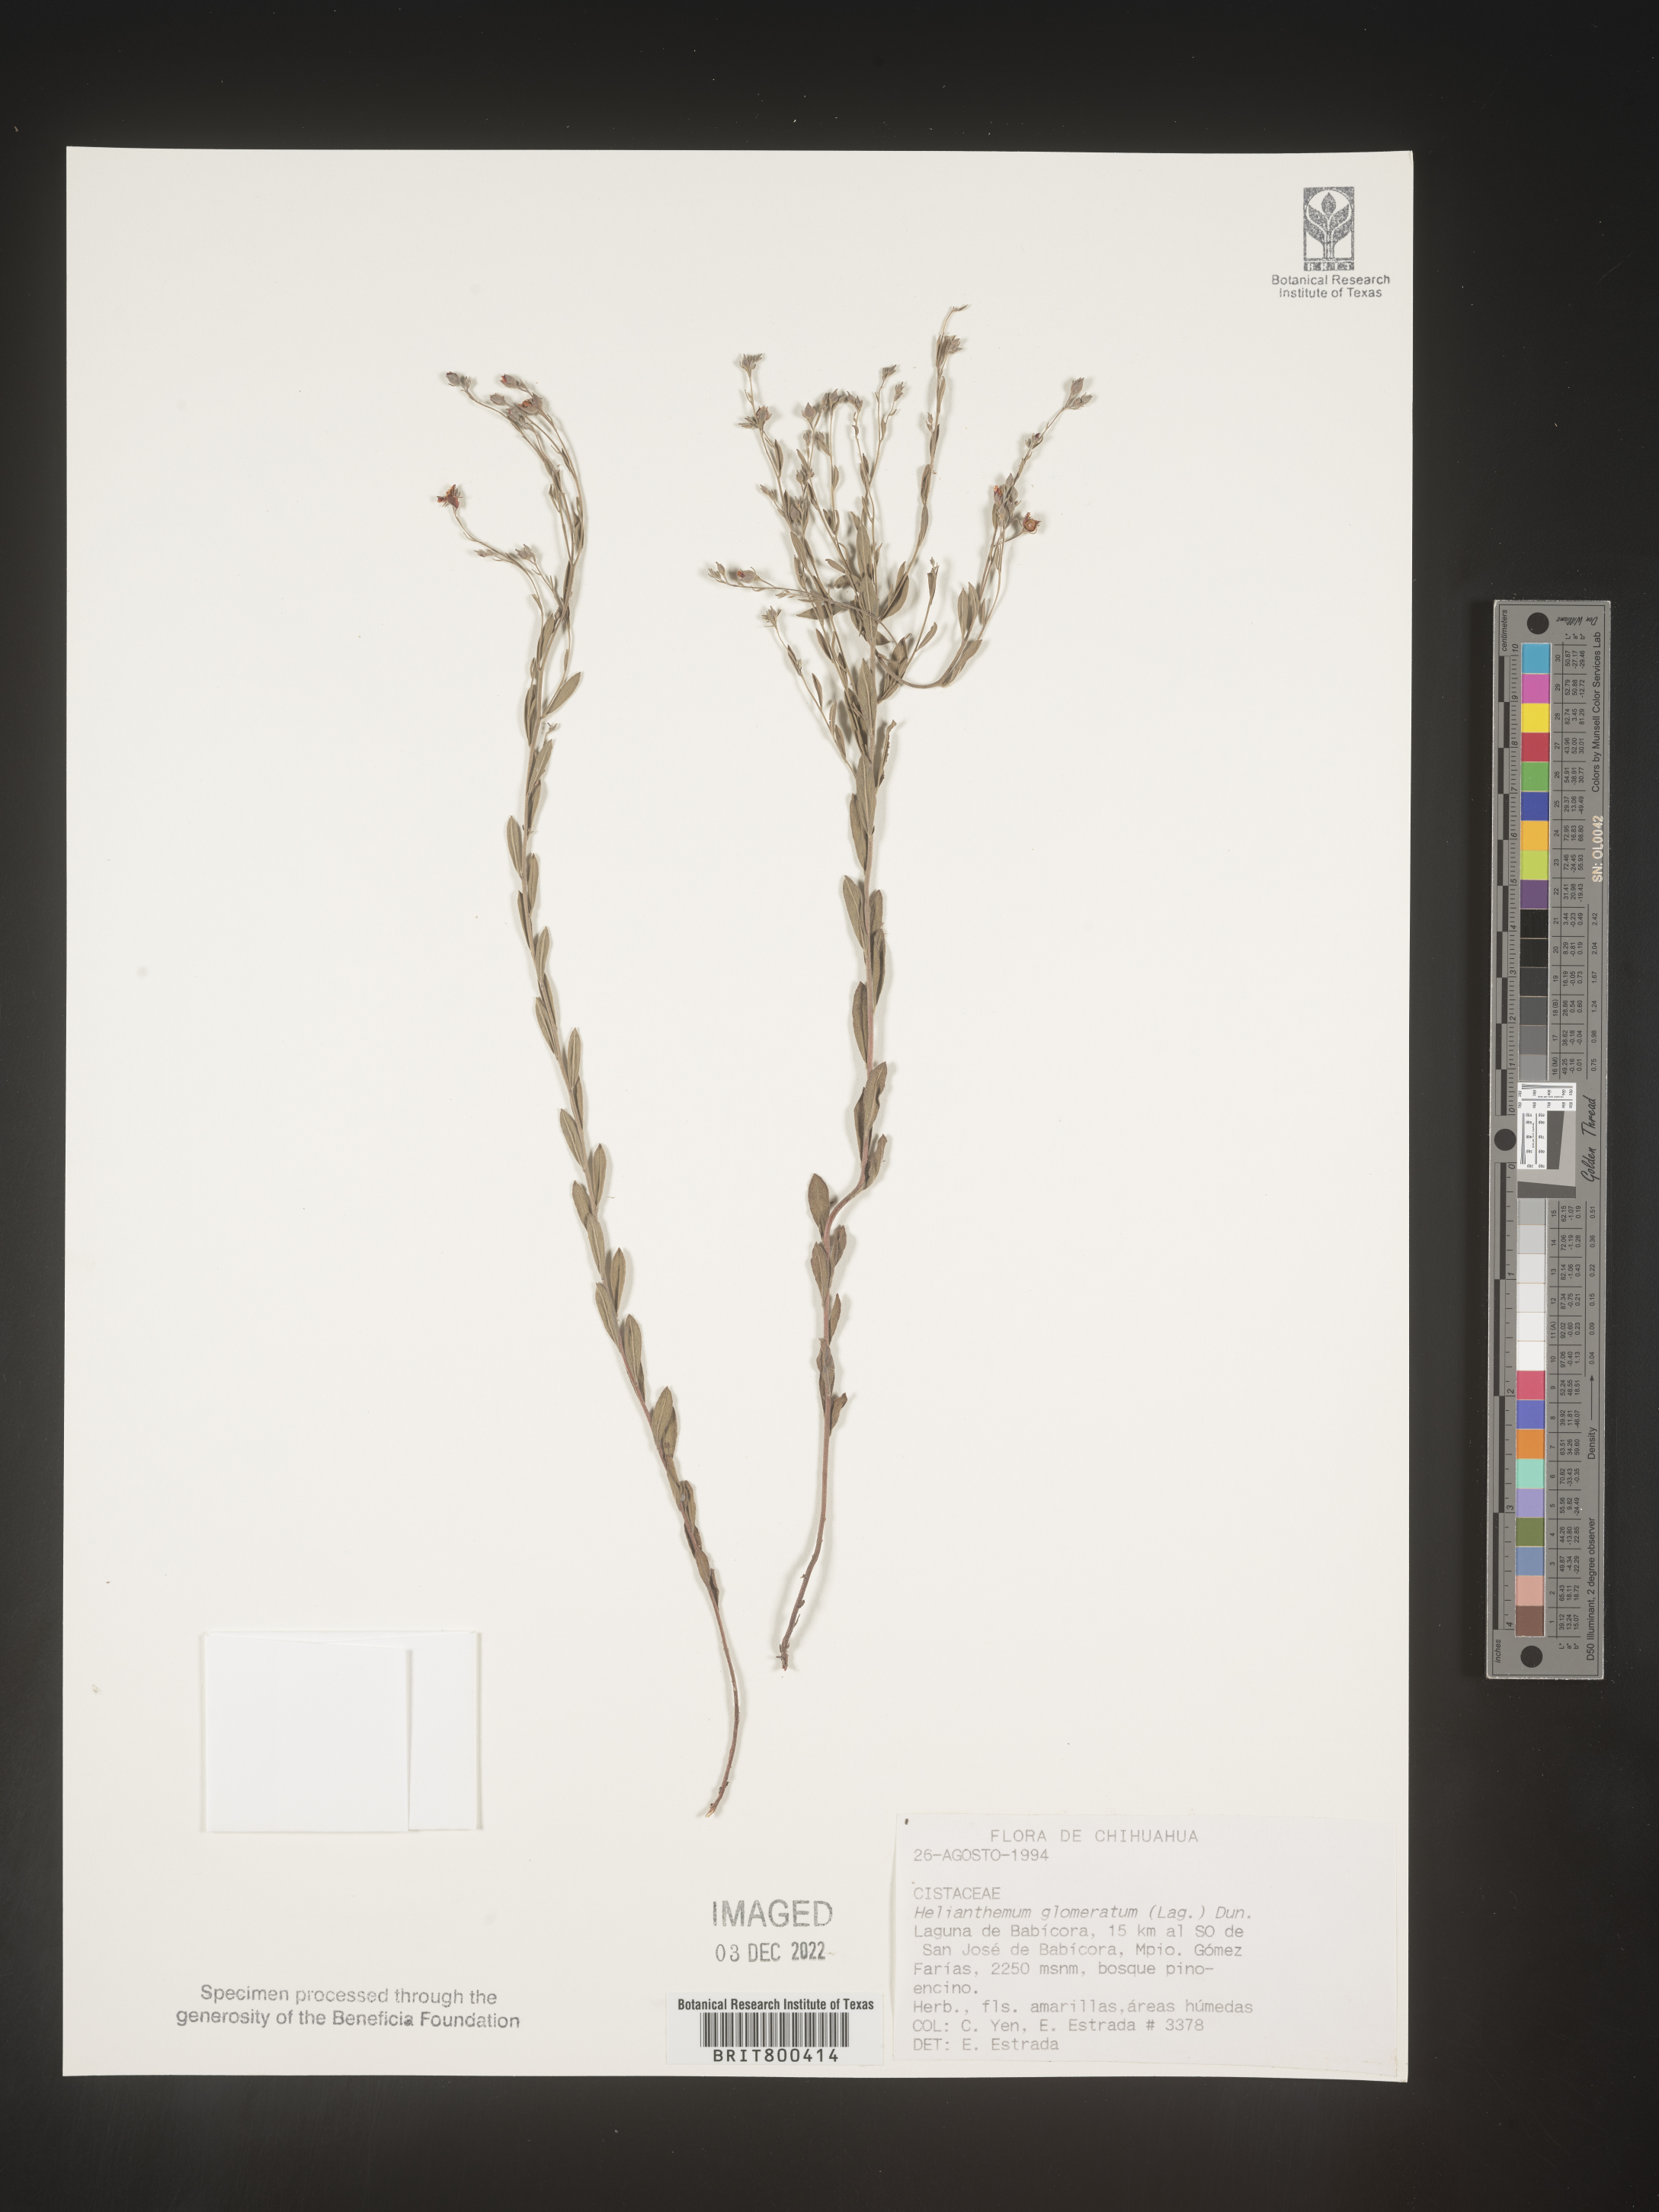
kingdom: Plantae
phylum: Tracheophyta
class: Magnoliopsida
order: Malvales
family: Cistaceae
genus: Helianthemum
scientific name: Helianthemum
